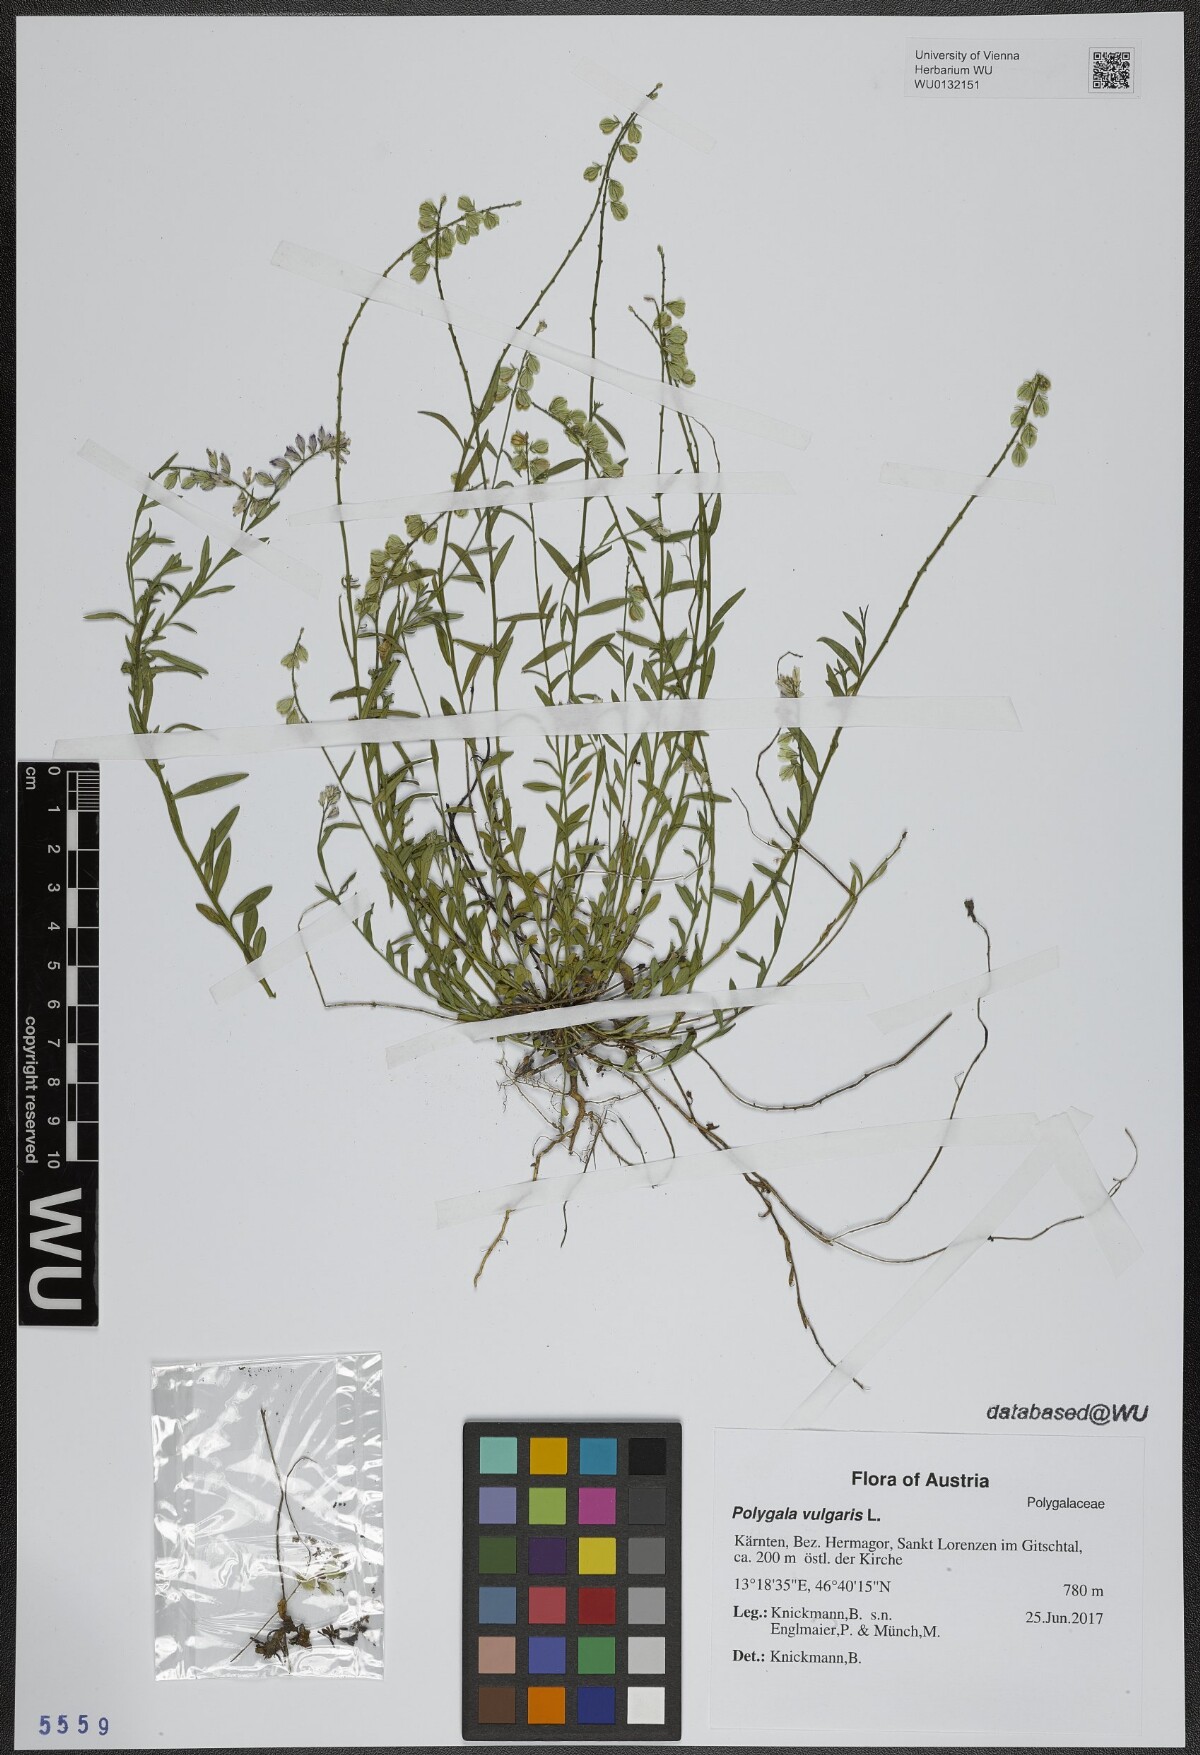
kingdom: Plantae
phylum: Tracheophyta
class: Magnoliopsida
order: Fabales
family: Polygalaceae
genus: Polygala
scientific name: Polygala vulgaris
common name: Common milkwort
